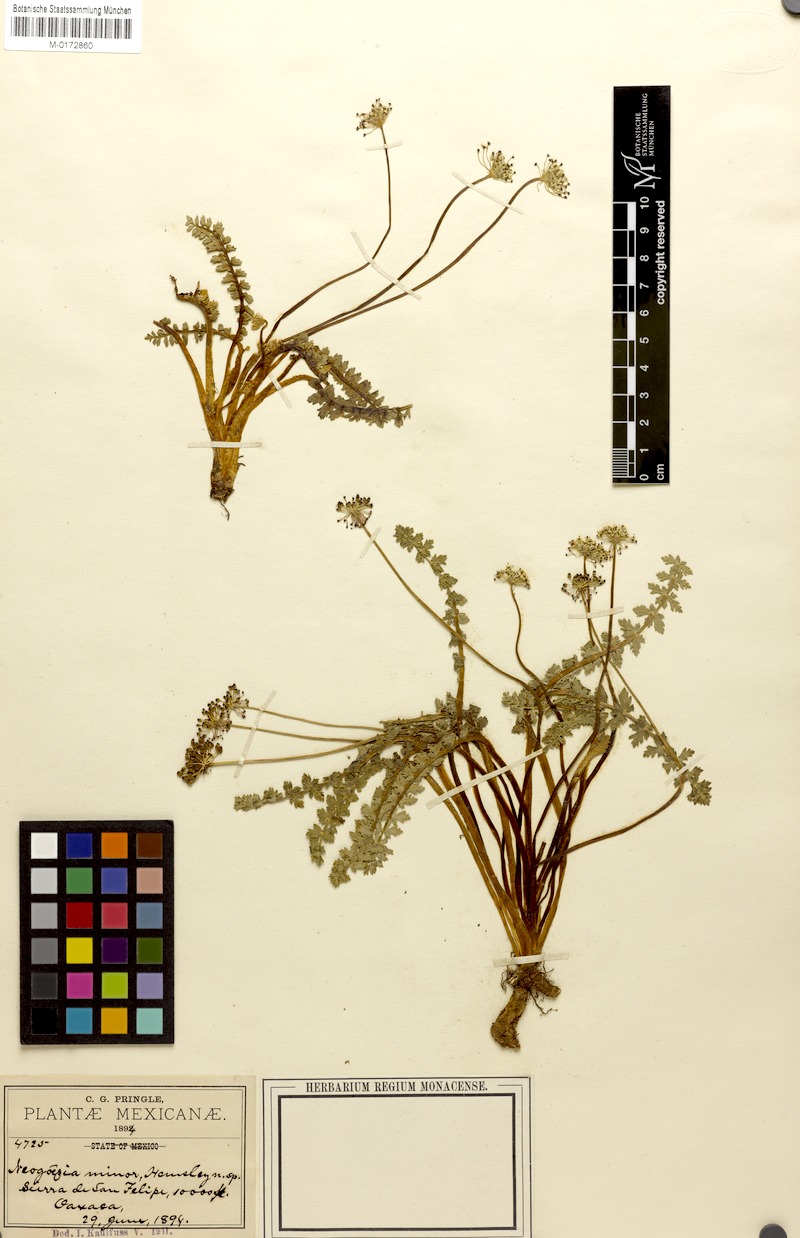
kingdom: Plantae
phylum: Tracheophyta
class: Magnoliopsida
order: Apiales
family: Apiaceae
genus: Neogoezia
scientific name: Neogoezia minor
